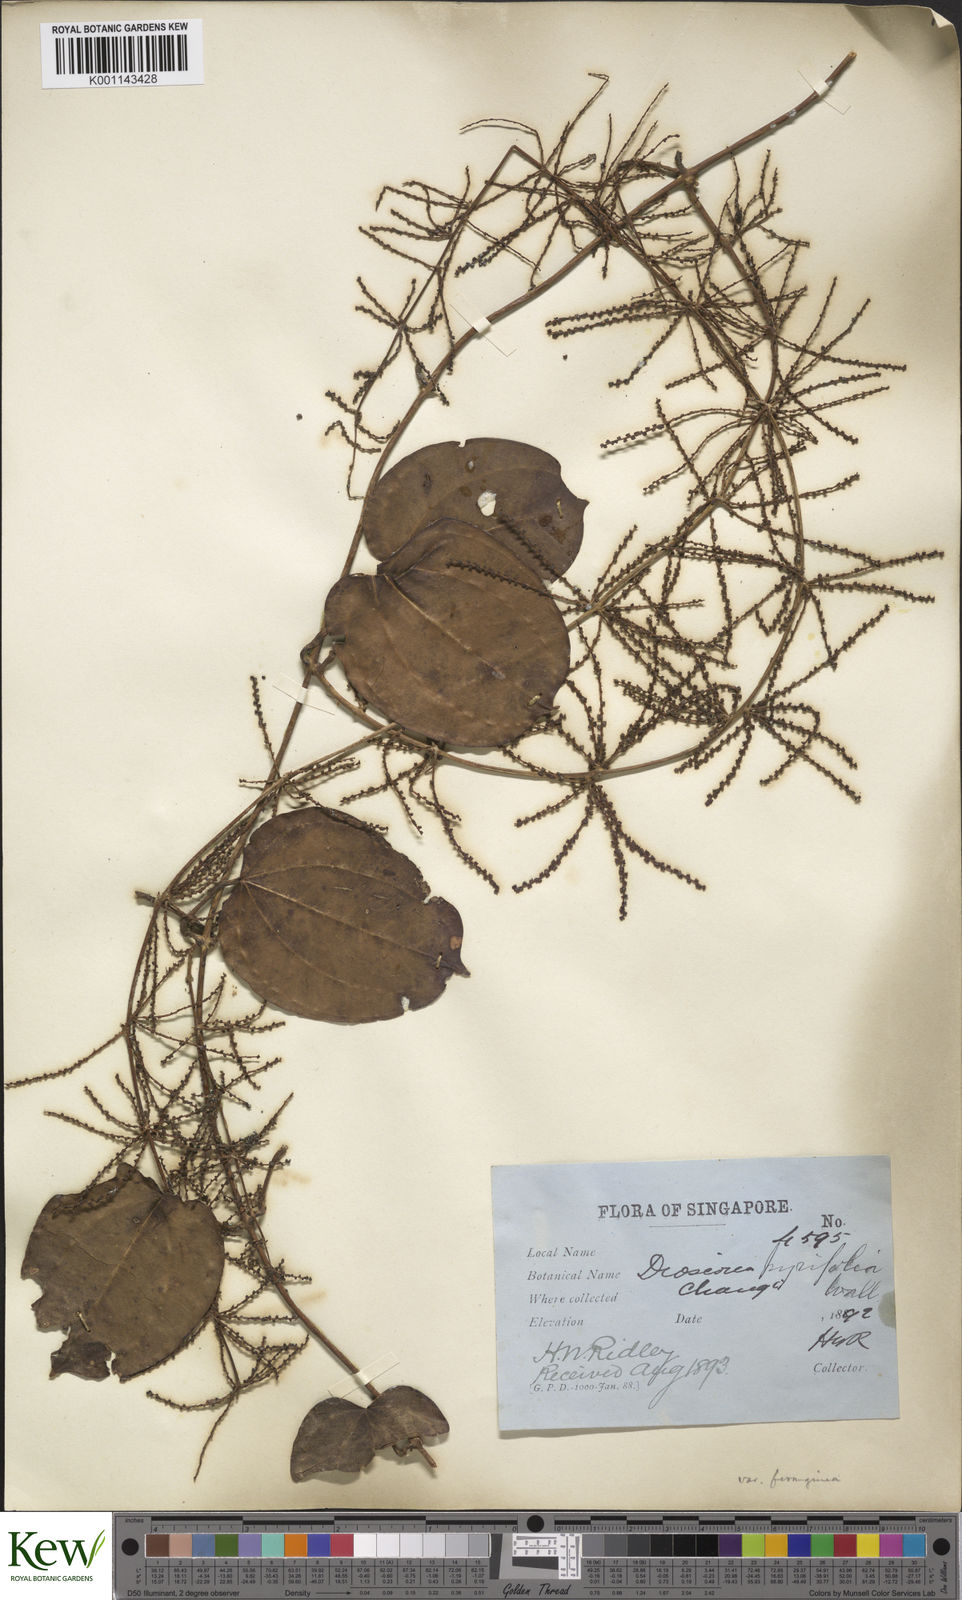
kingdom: Plantae
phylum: Tracheophyta
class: Liliopsida
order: Dioscoreales
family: Dioscoreaceae
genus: Dioscorea
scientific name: Dioscorea pyrifolia
